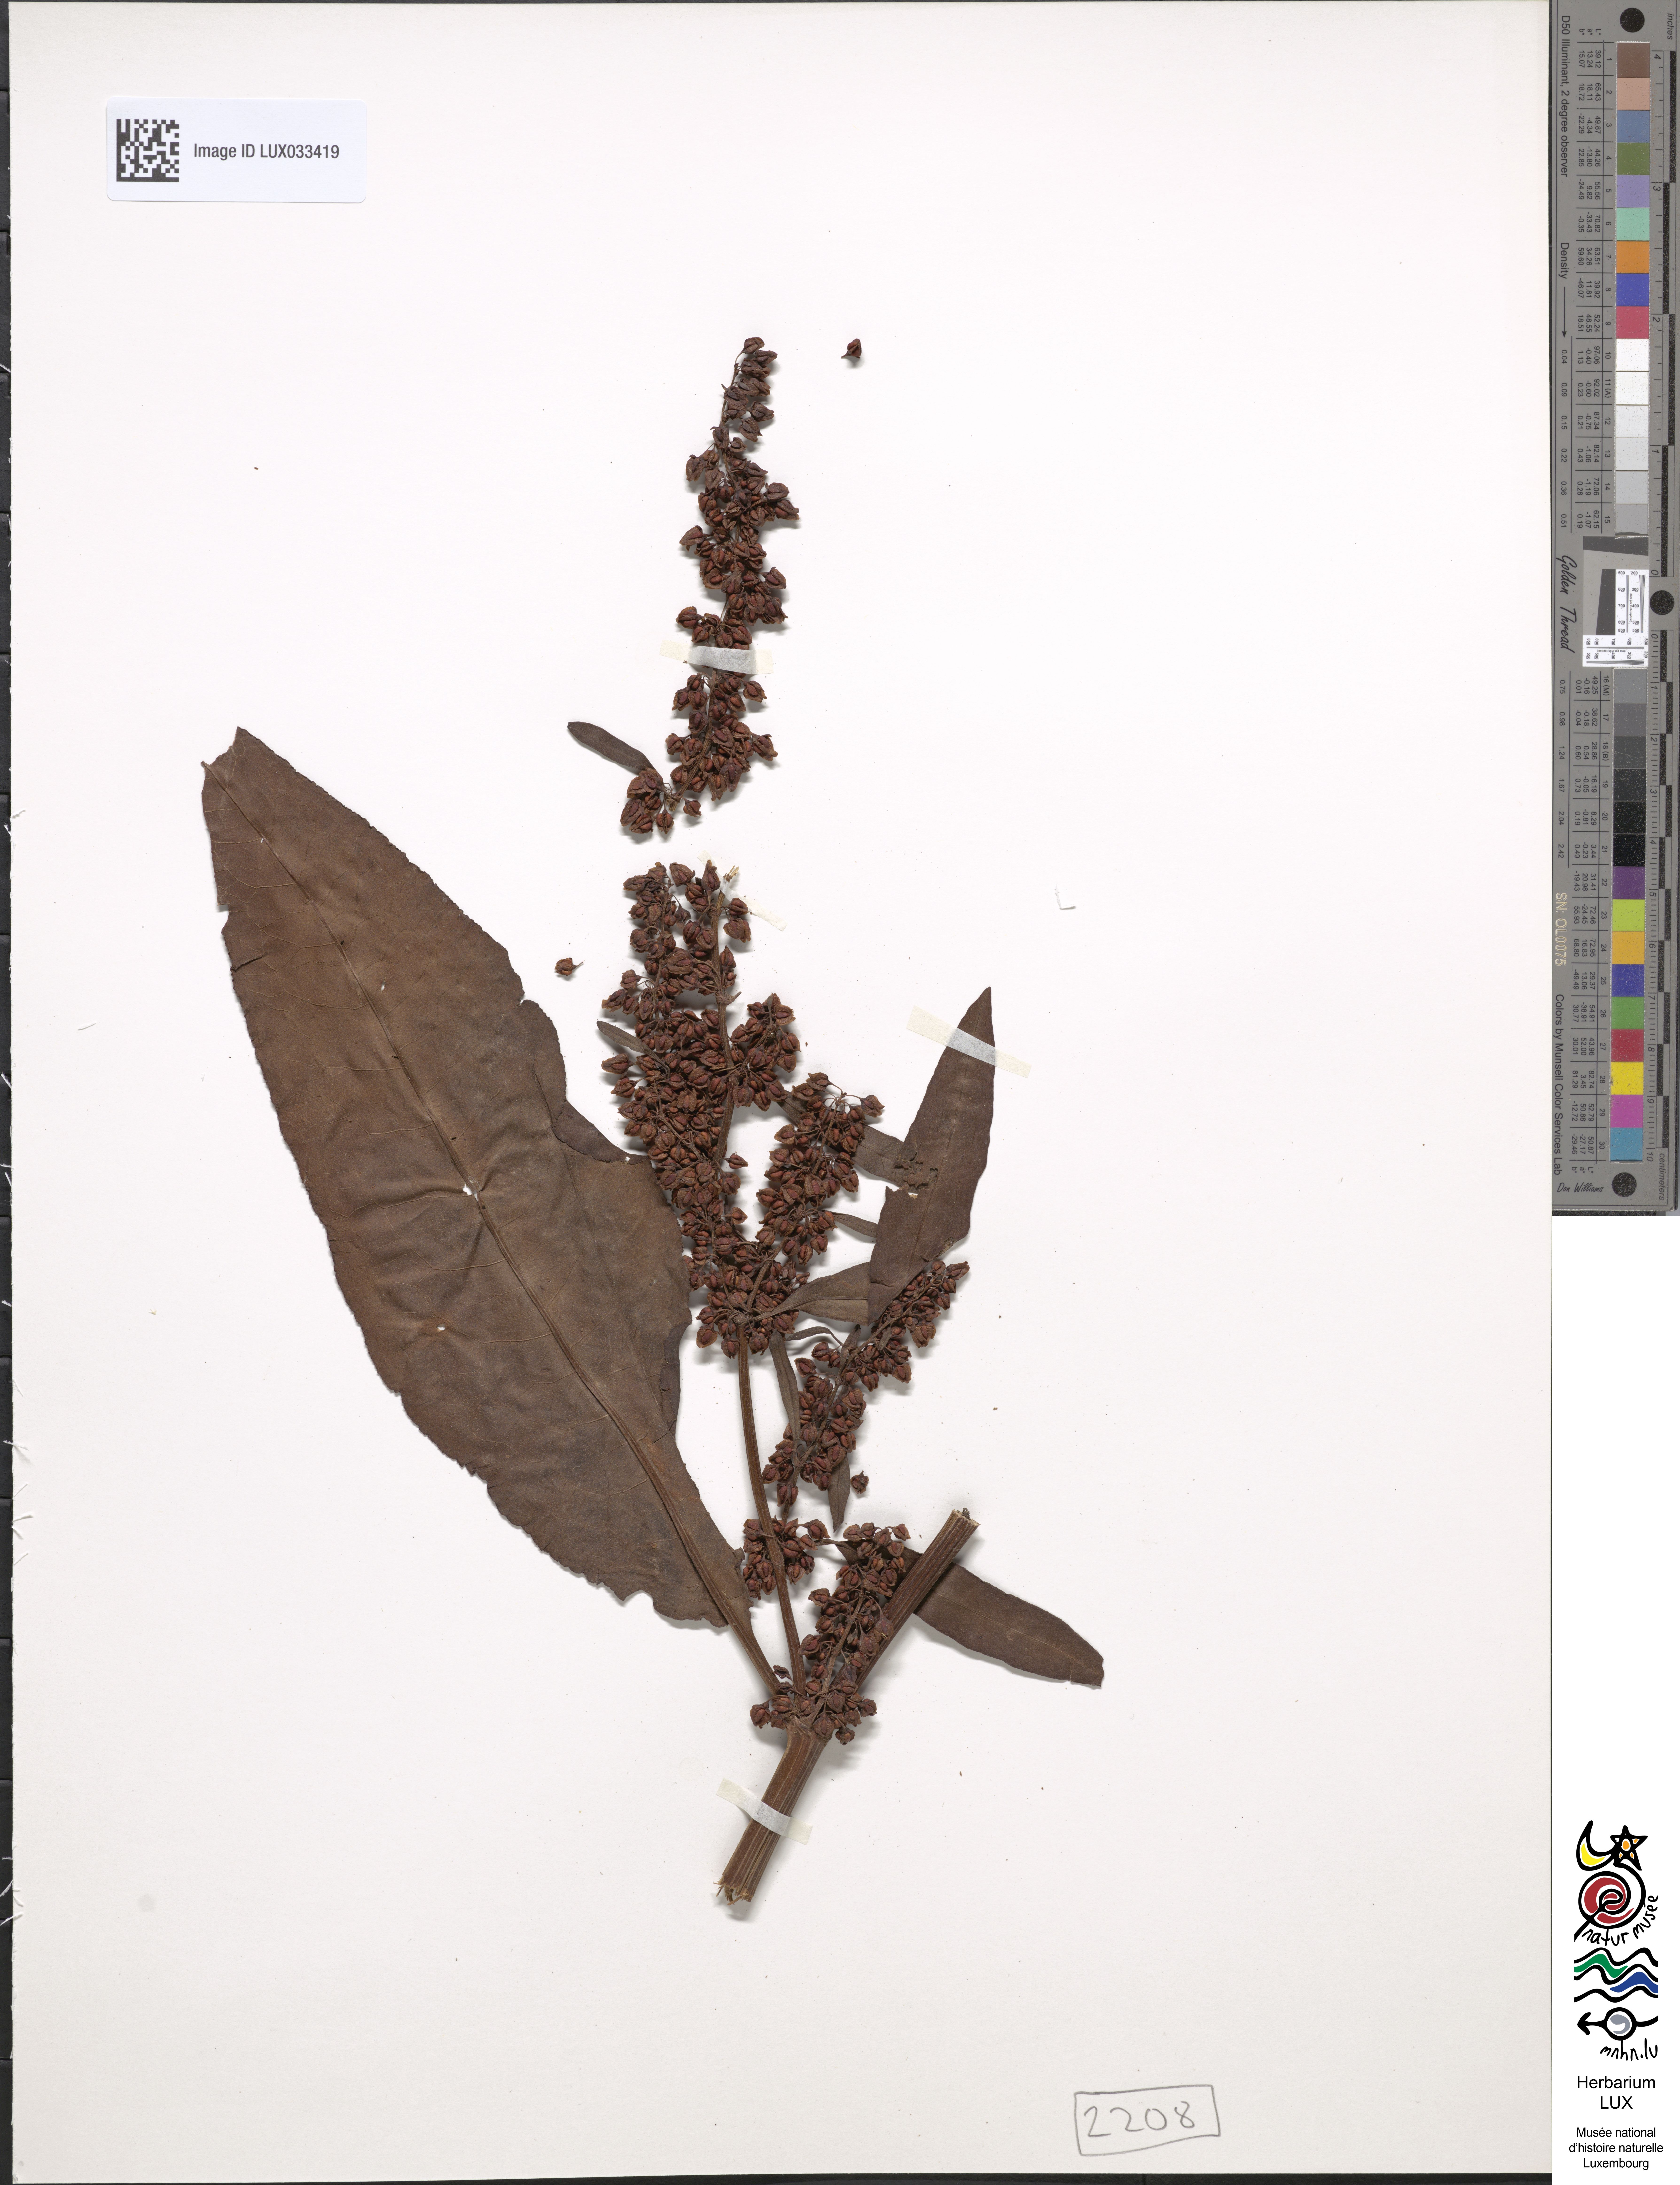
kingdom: Plantae
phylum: Tracheophyta
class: Magnoliopsida
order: Caryophyllales
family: Polygonaceae
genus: Rumex
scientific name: Rumex hydrolapathum
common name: Water dock
